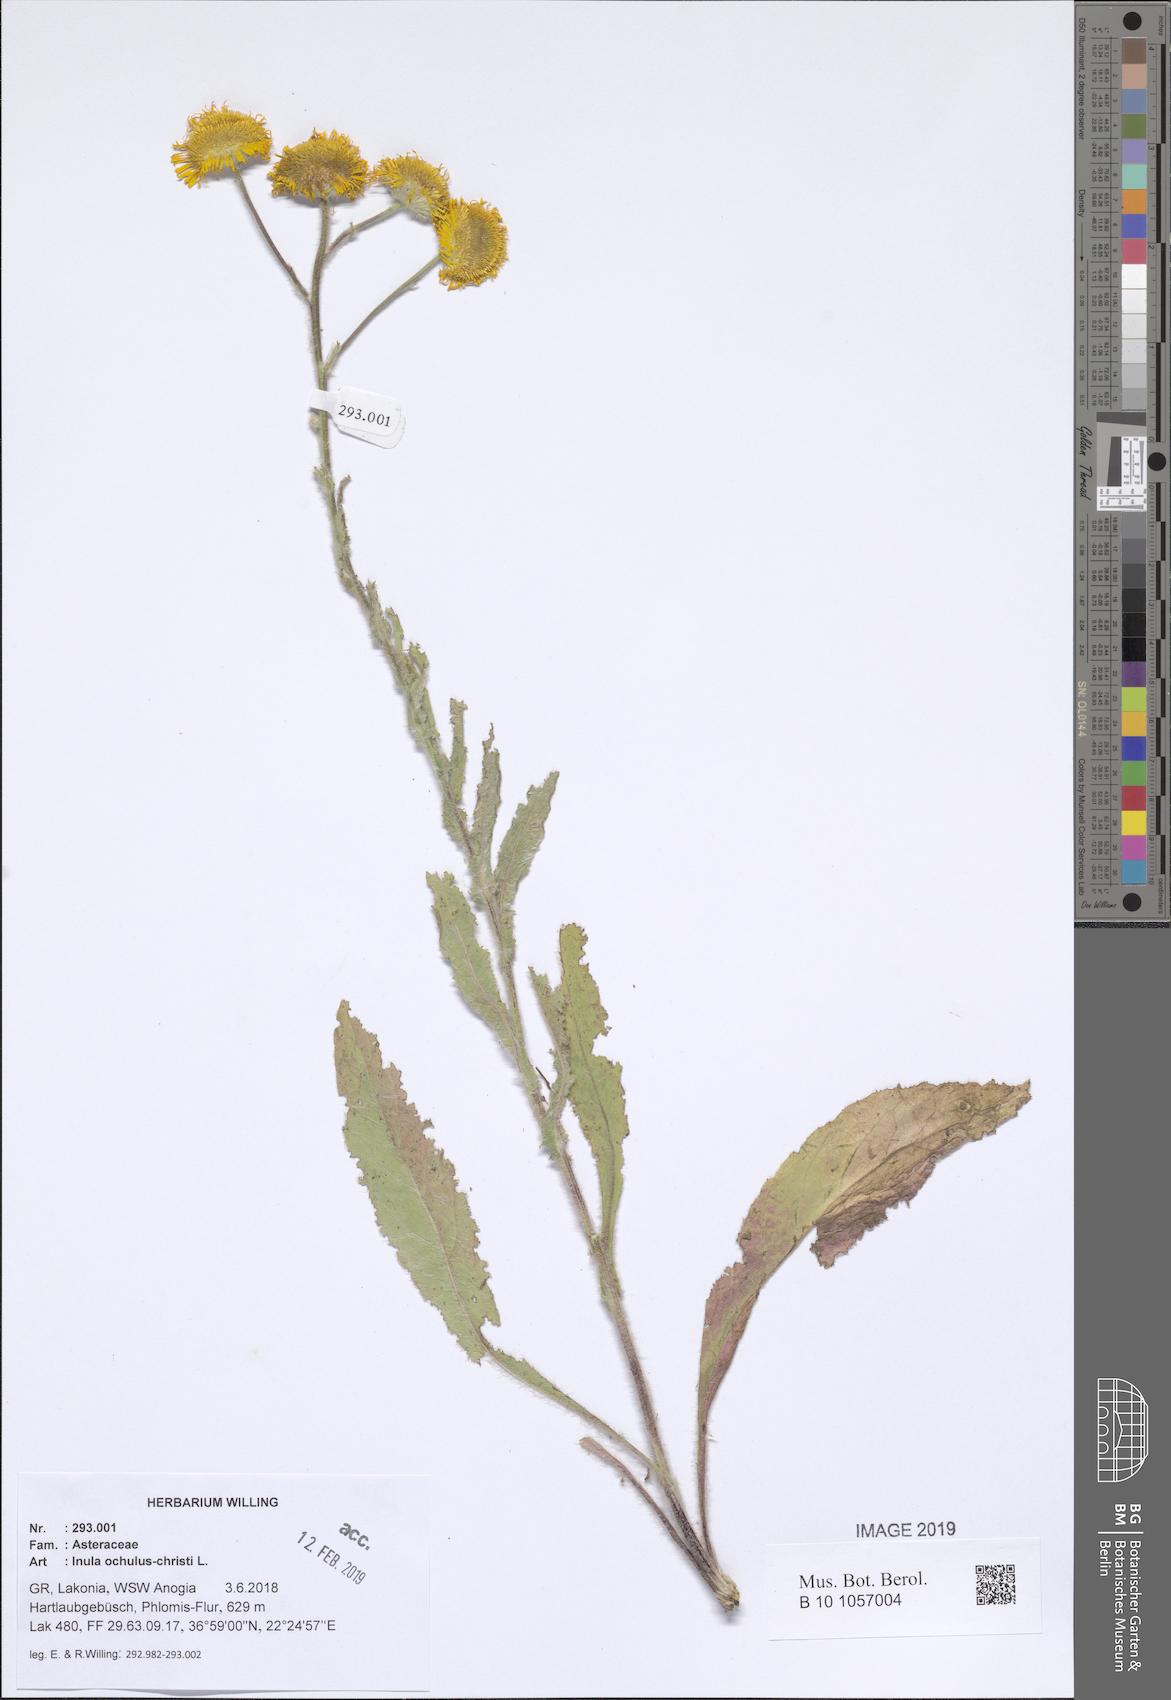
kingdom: Plantae
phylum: Tracheophyta
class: Magnoliopsida
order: Asterales
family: Asteraceae
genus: Pentanema
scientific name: Pentanema oculus-christi
